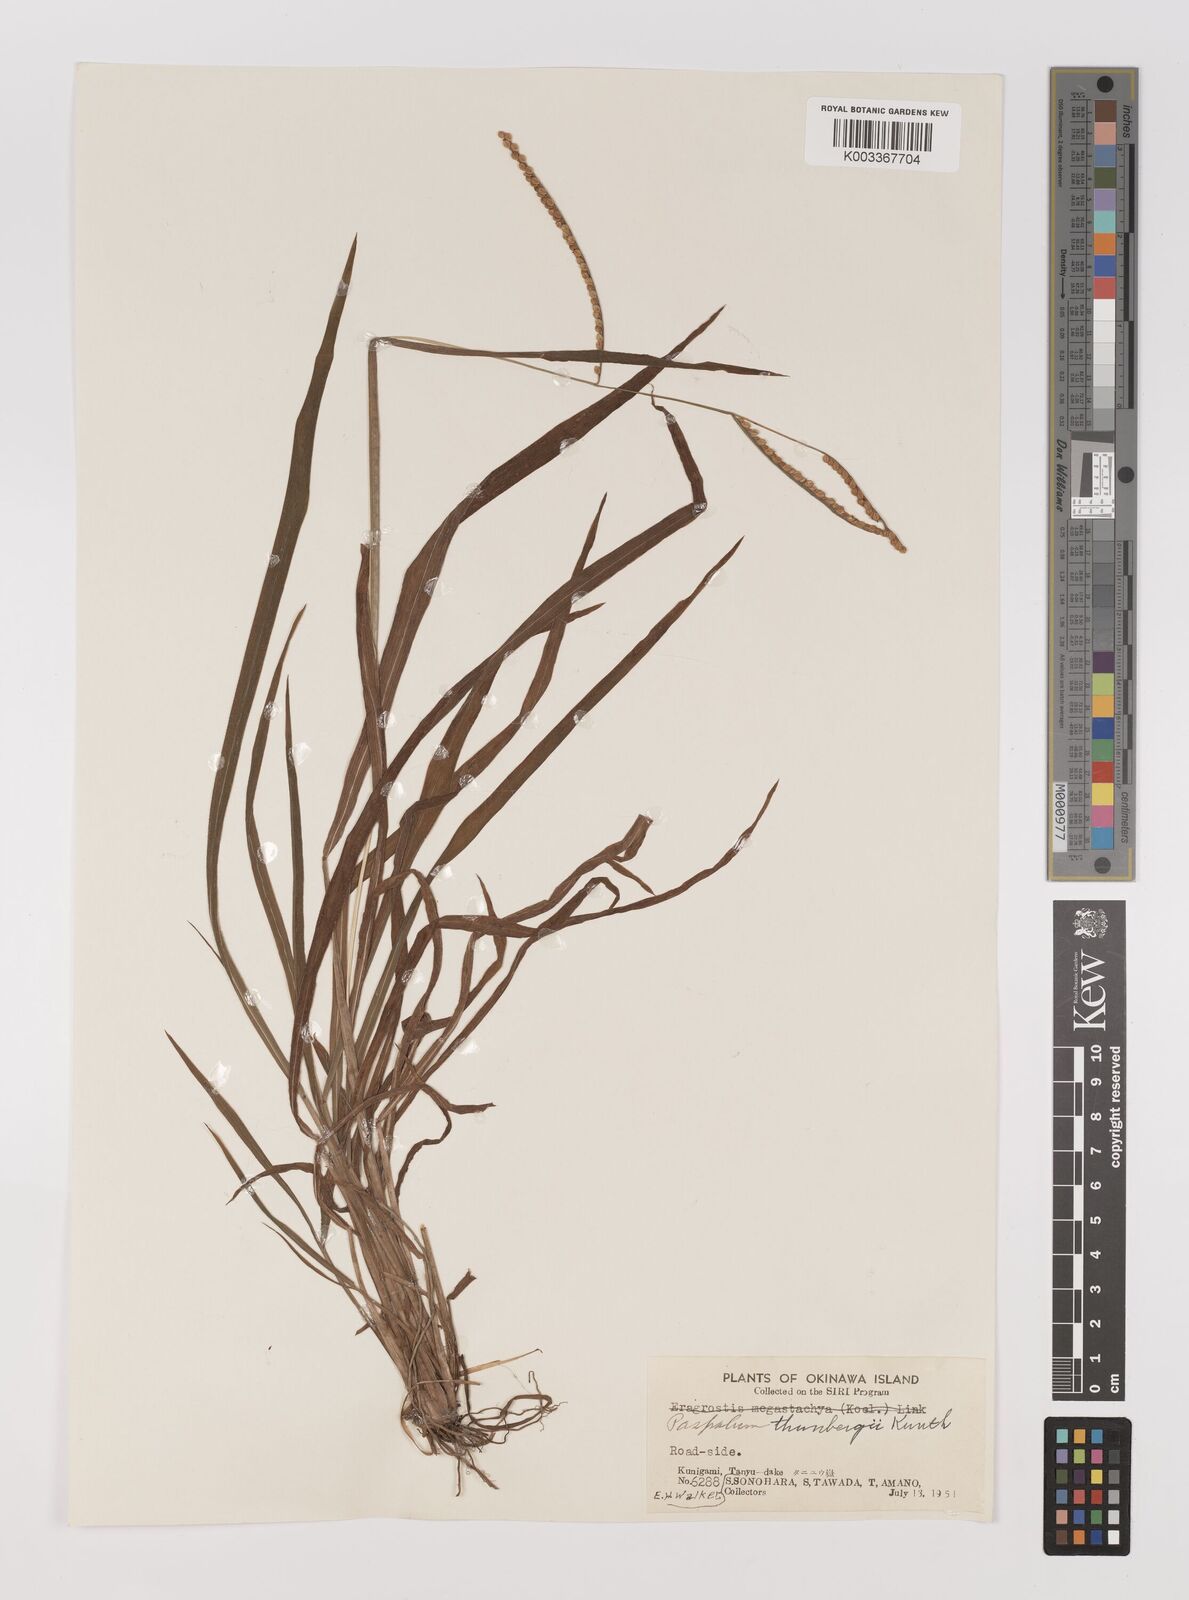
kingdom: Plantae
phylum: Tracheophyta
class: Liliopsida
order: Poales
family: Poaceae
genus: Panicum
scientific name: Panicum
